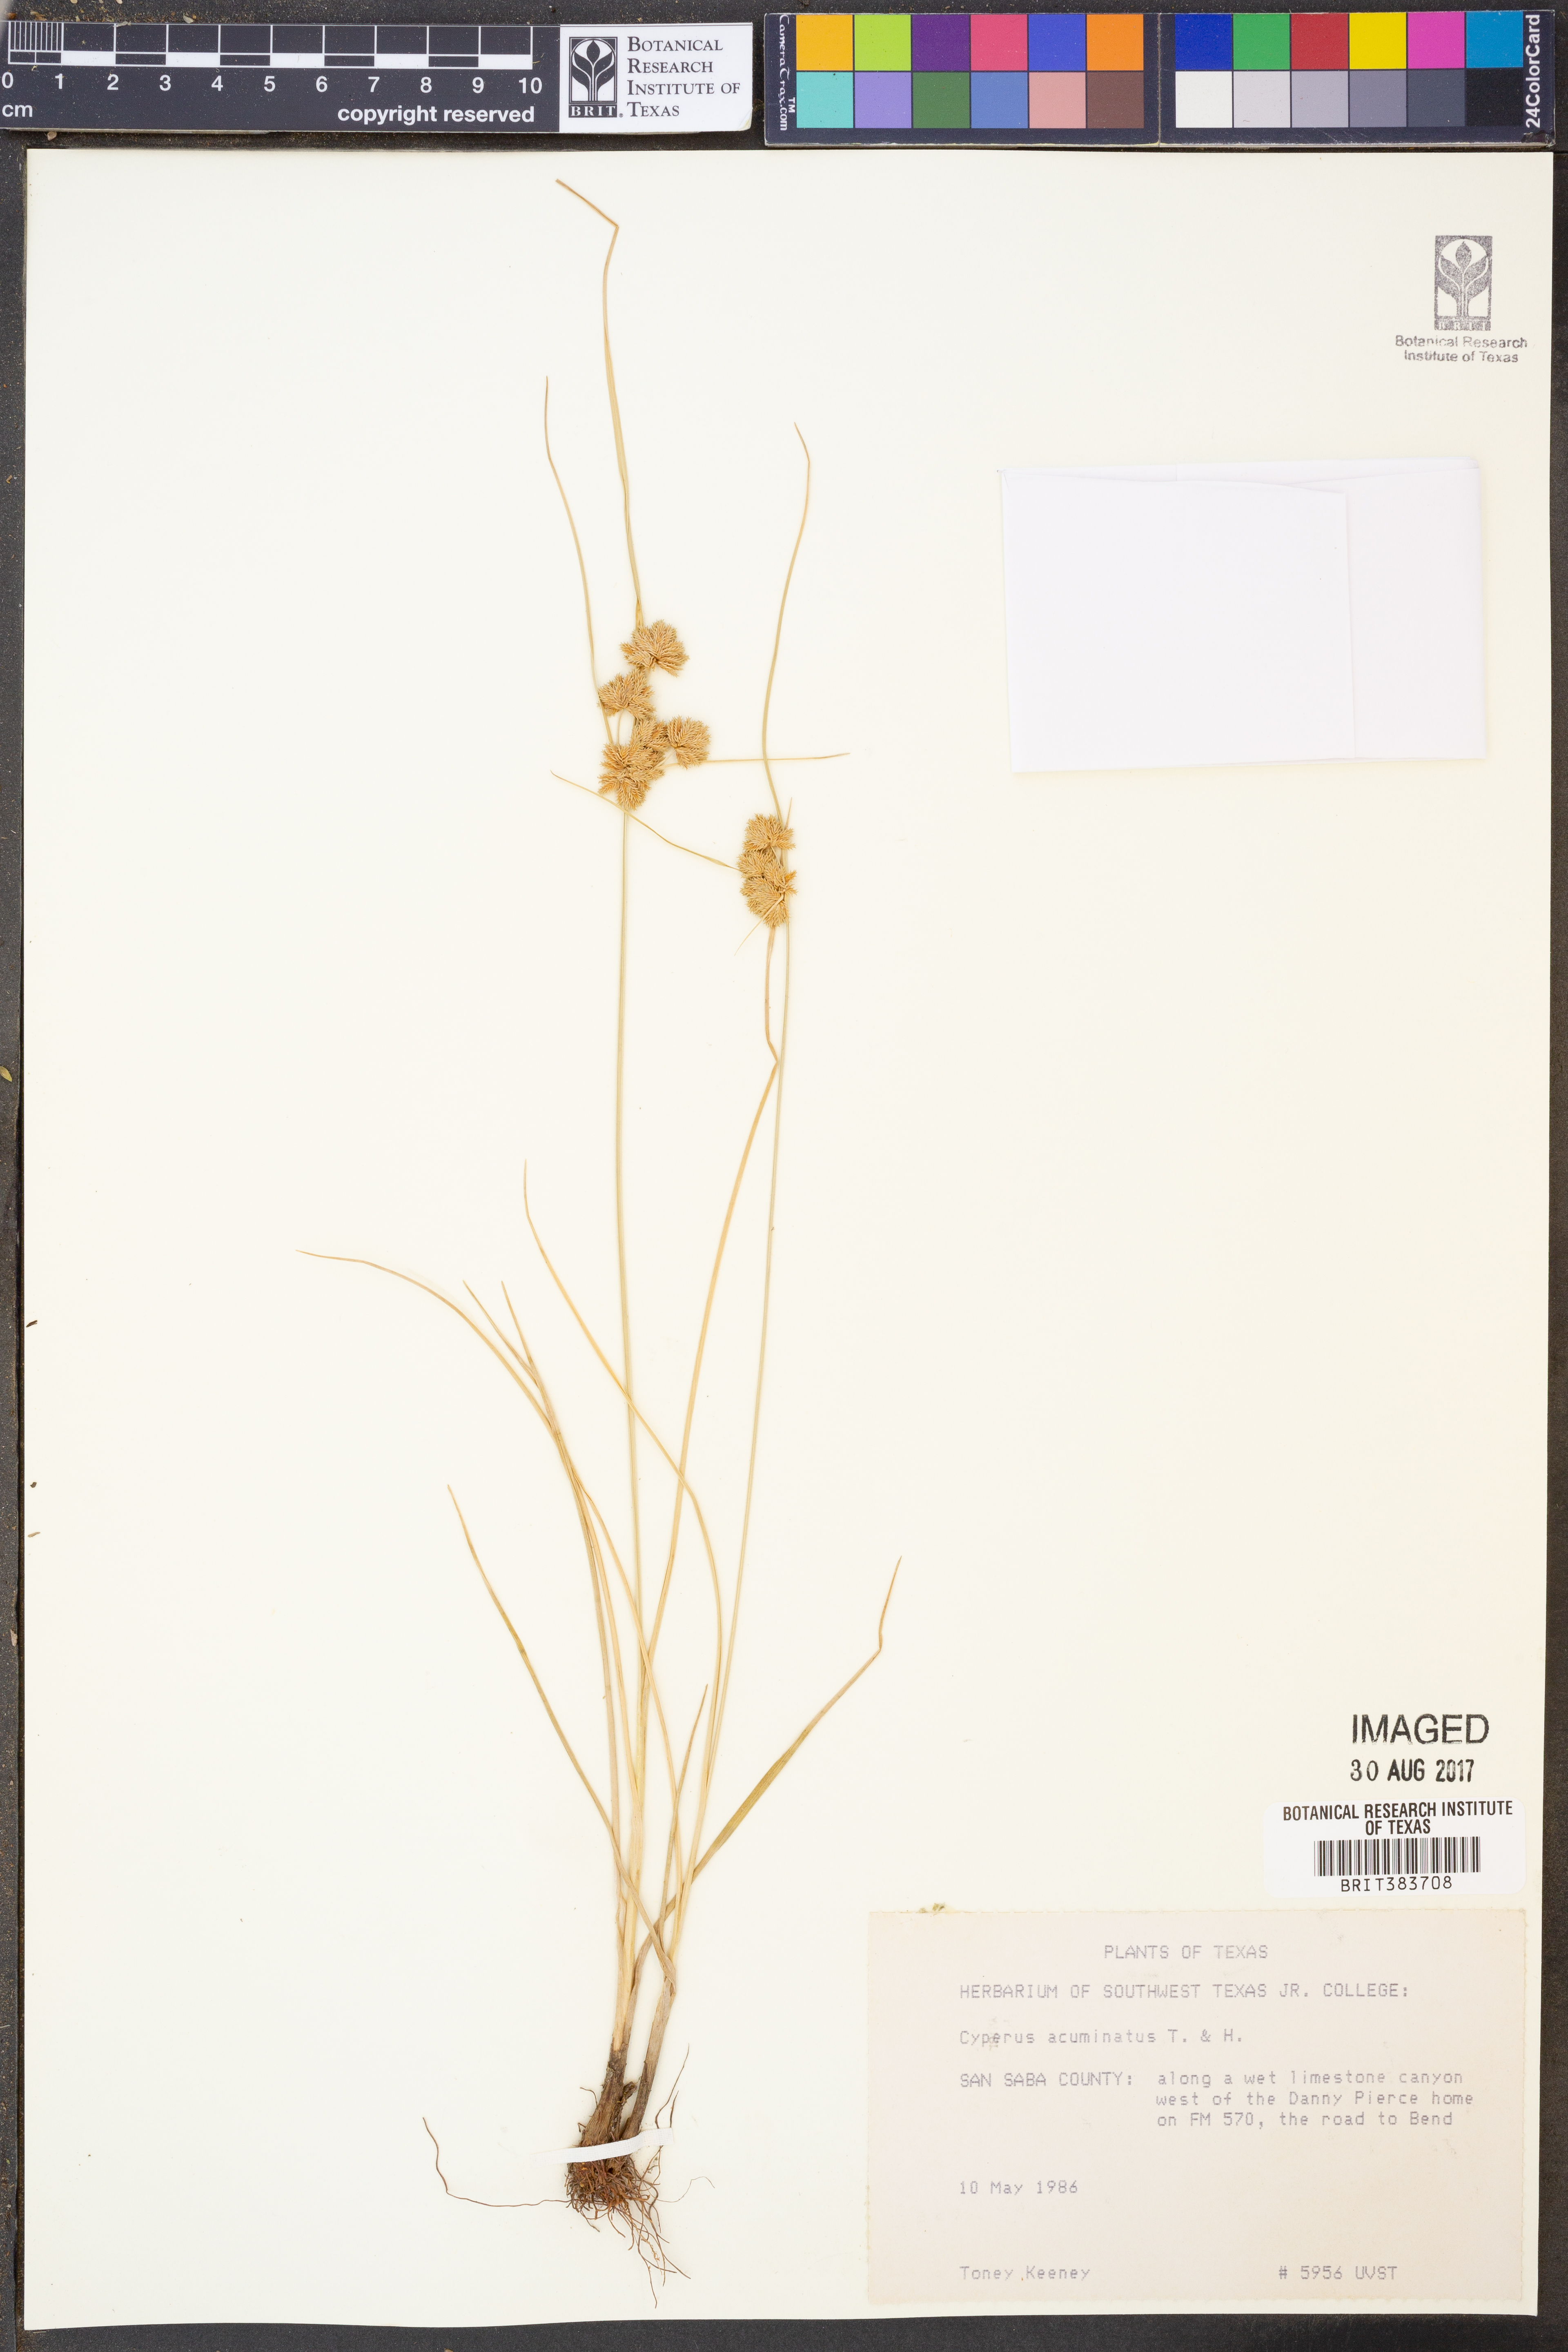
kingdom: Plantae
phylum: Tracheophyta
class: Liliopsida
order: Poales
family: Cyperaceae
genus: Cyperus
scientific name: Cyperus acuminatus
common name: Short-pointed cyperus
